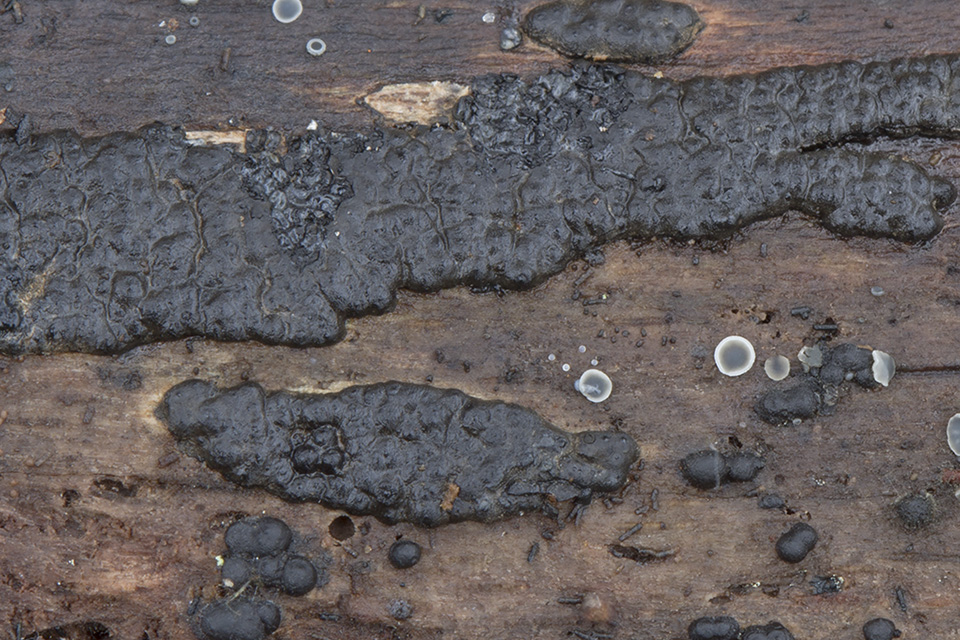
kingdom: Fungi
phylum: Ascomycota
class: Sordariomycetes
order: Xylariales
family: Xylariaceae
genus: Nemania
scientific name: Nemania serpens
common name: almindelig kuldyne
